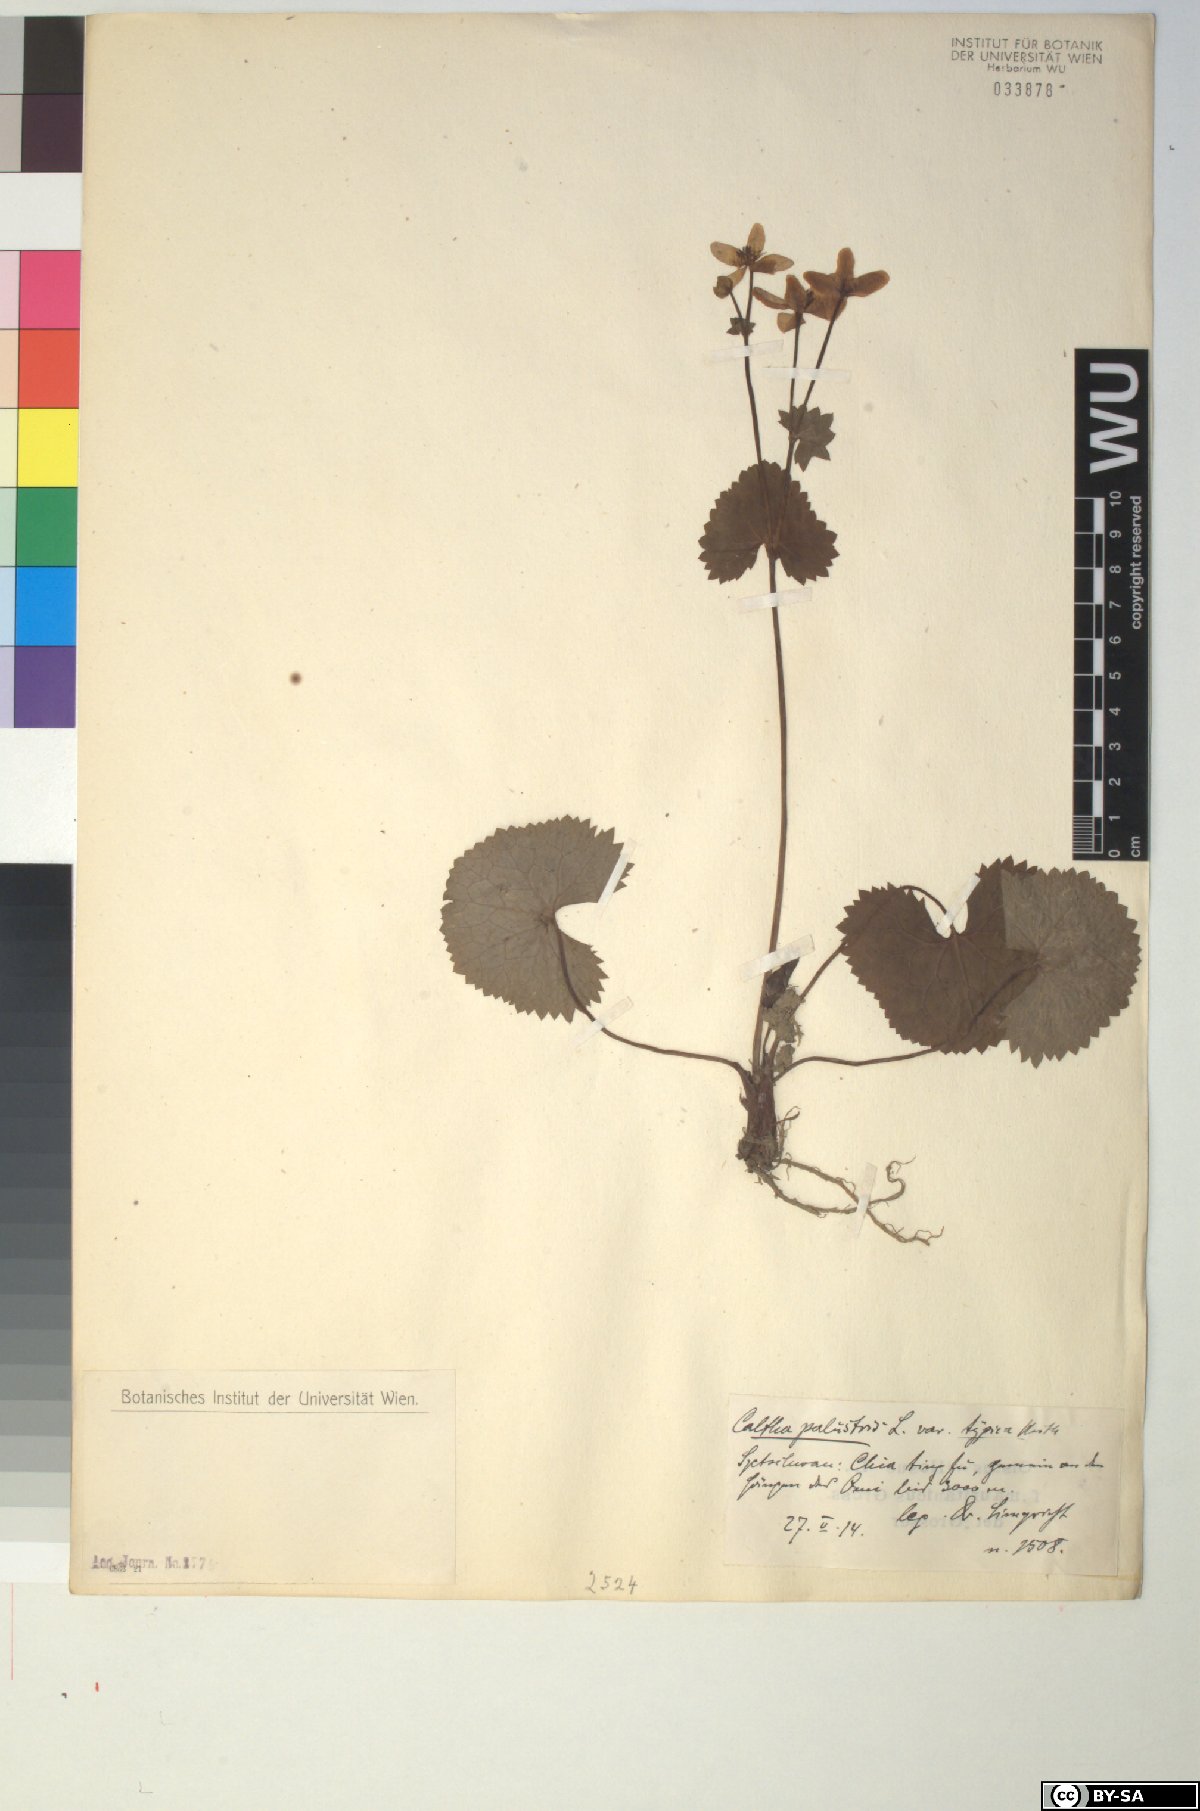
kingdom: Plantae
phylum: Tracheophyta
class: Magnoliopsida
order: Ranunculales
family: Ranunculaceae
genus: Caltha
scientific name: Caltha palustris
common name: Marsh marigold
